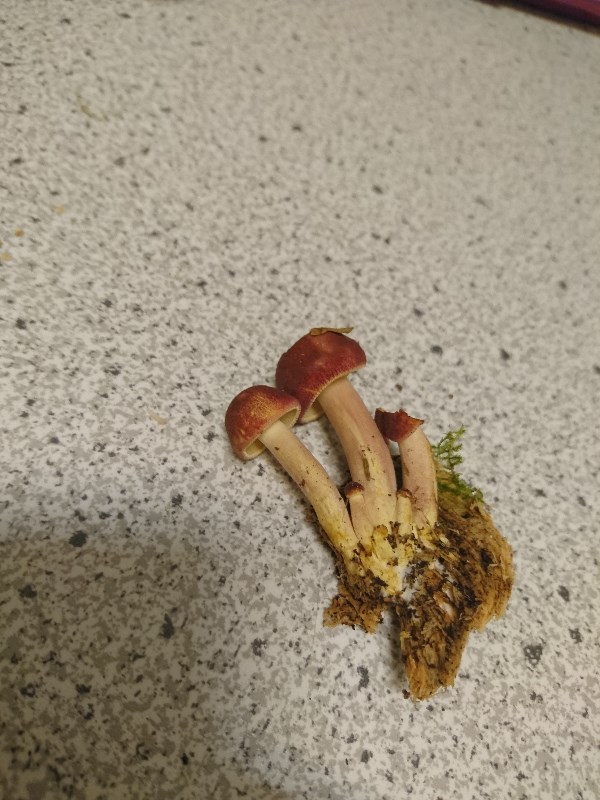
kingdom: Fungi
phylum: Basidiomycota
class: Agaricomycetes
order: Agaricales
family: Tricholomataceae
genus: Tricholomopsis
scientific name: Tricholomopsis rutilans
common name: purpur-væbnerhat
